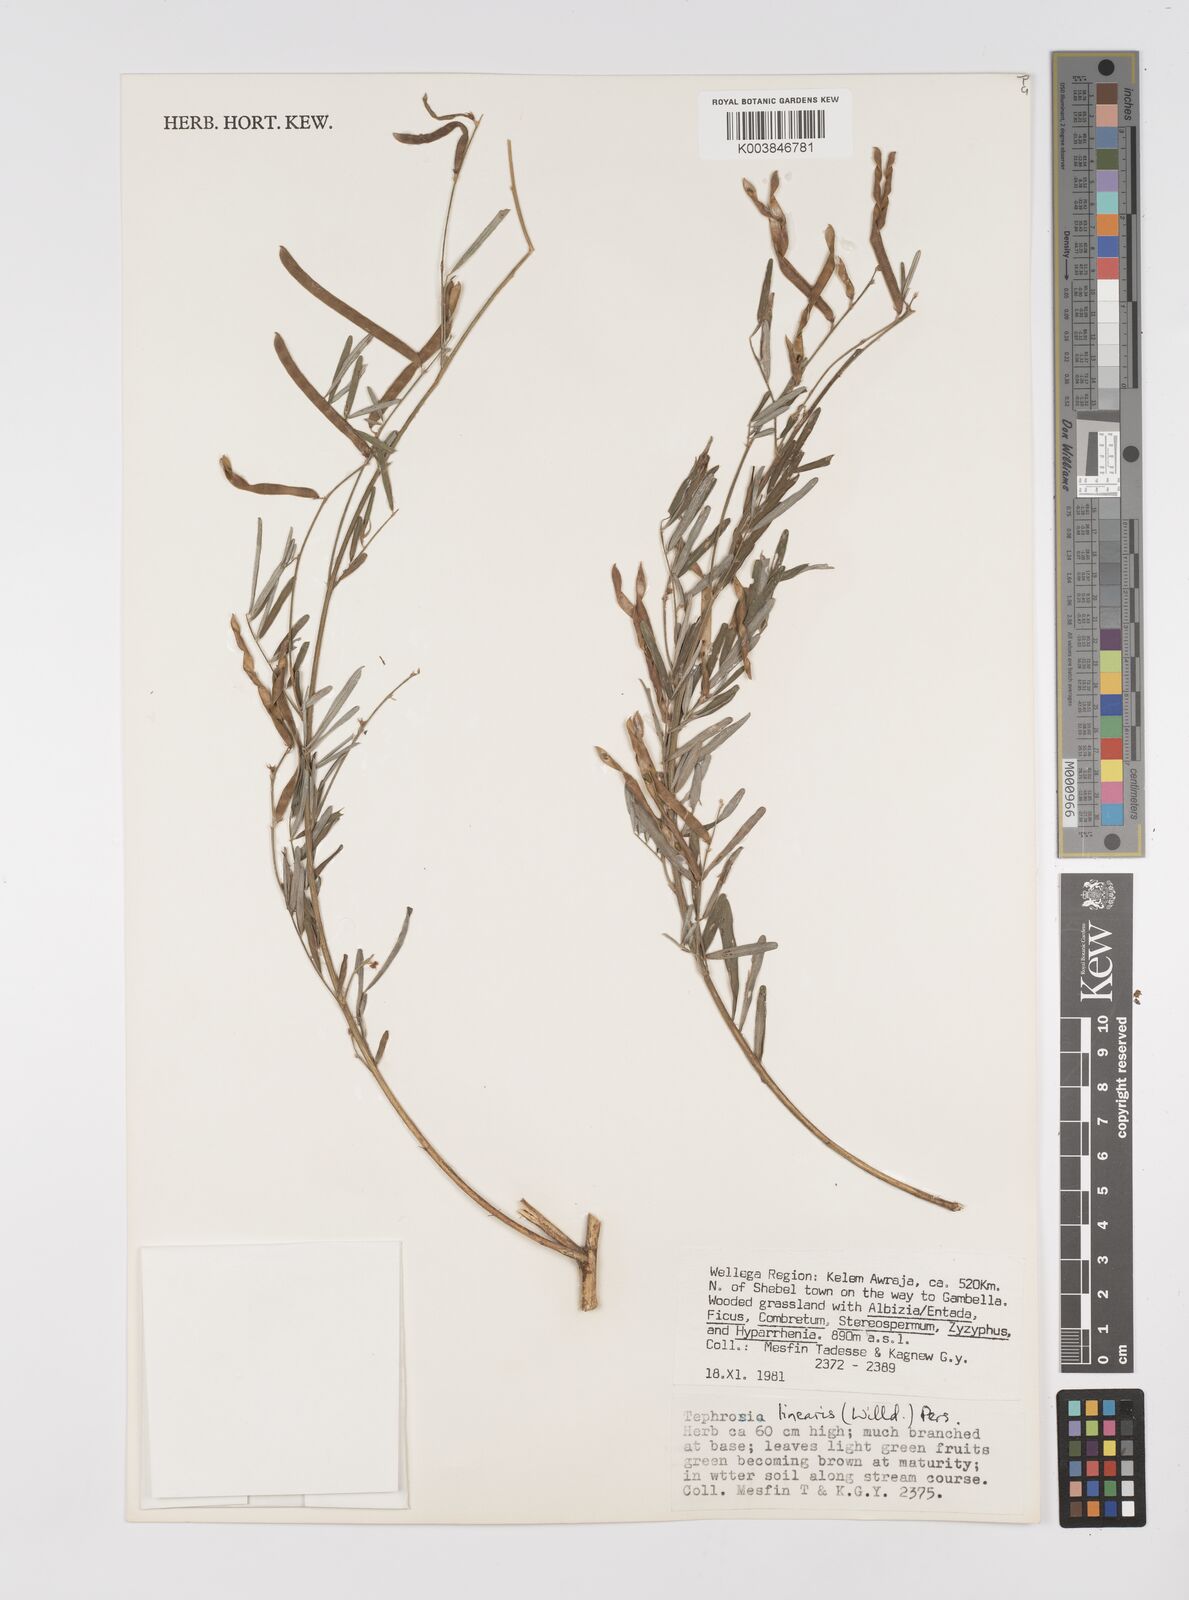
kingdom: Plantae
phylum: Tracheophyta
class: Magnoliopsida
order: Fabales
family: Fabaceae
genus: Tephrosia
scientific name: Tephrosia linearis
